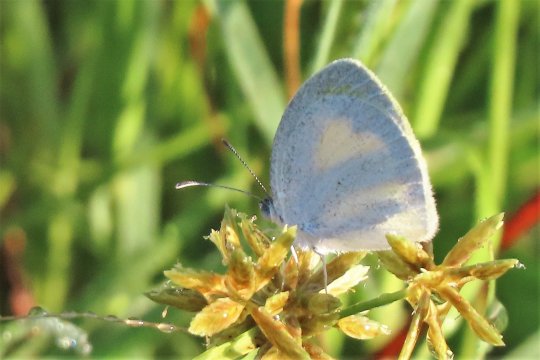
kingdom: Animalia
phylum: Arthropoda
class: Insecta
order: Lepidoptera
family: Pieridae
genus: Eurema
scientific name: Eurema daira
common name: Barred Yellow
